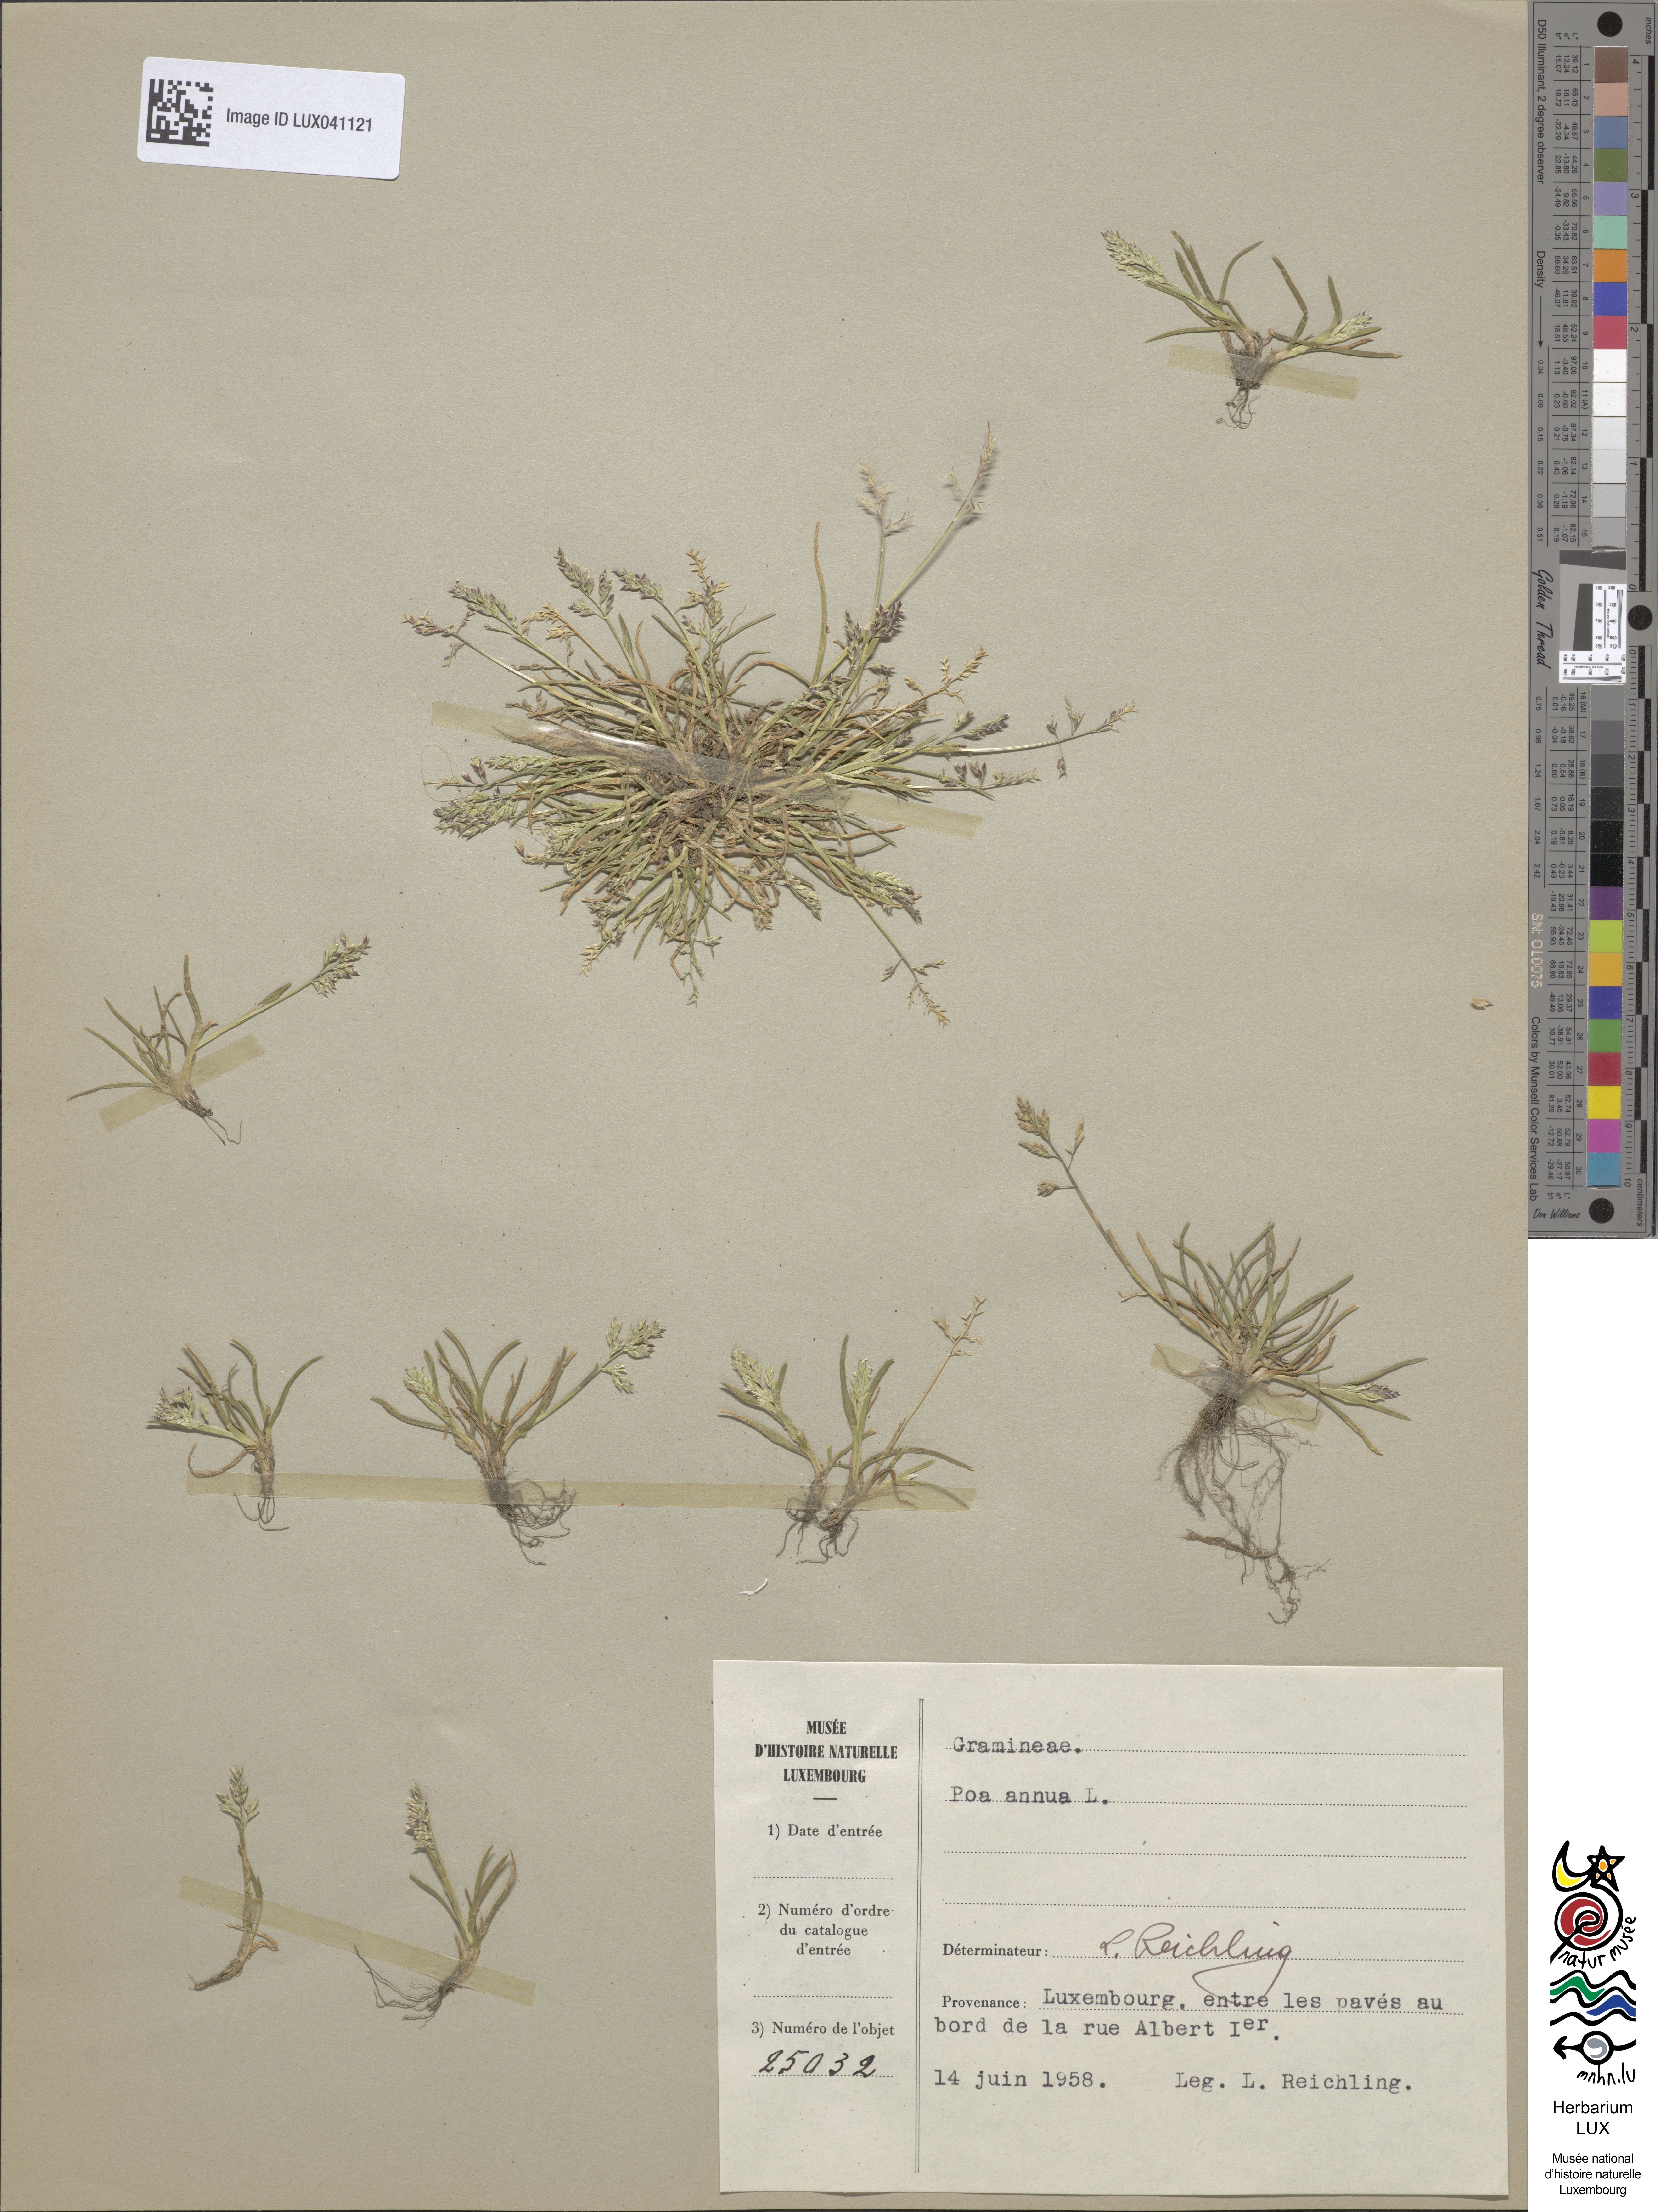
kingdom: Plantae
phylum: Tracheophyta
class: Liliopsida
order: Poales
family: Poaceae
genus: Poa
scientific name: Poa annua
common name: Annual bluegrass
